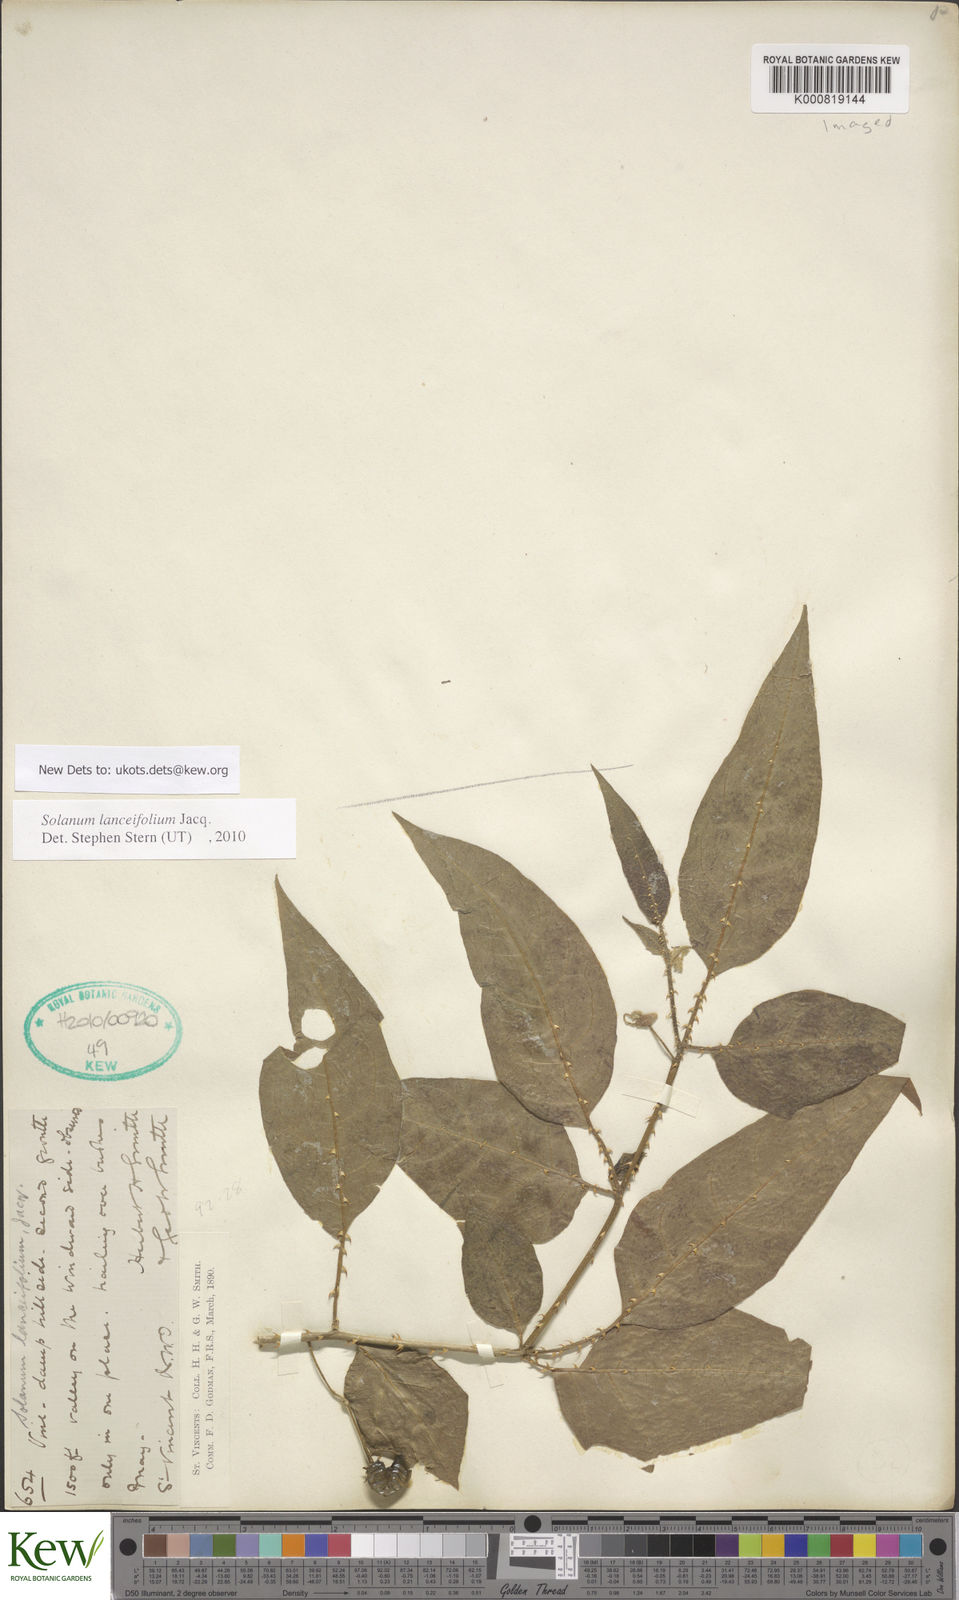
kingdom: Plantae
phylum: Tracheophyta
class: Magnoliopsida
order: Solanales
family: Solanaceae
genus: Solanum
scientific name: Solanum lanceifolium
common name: Lanceleaf nightshade
